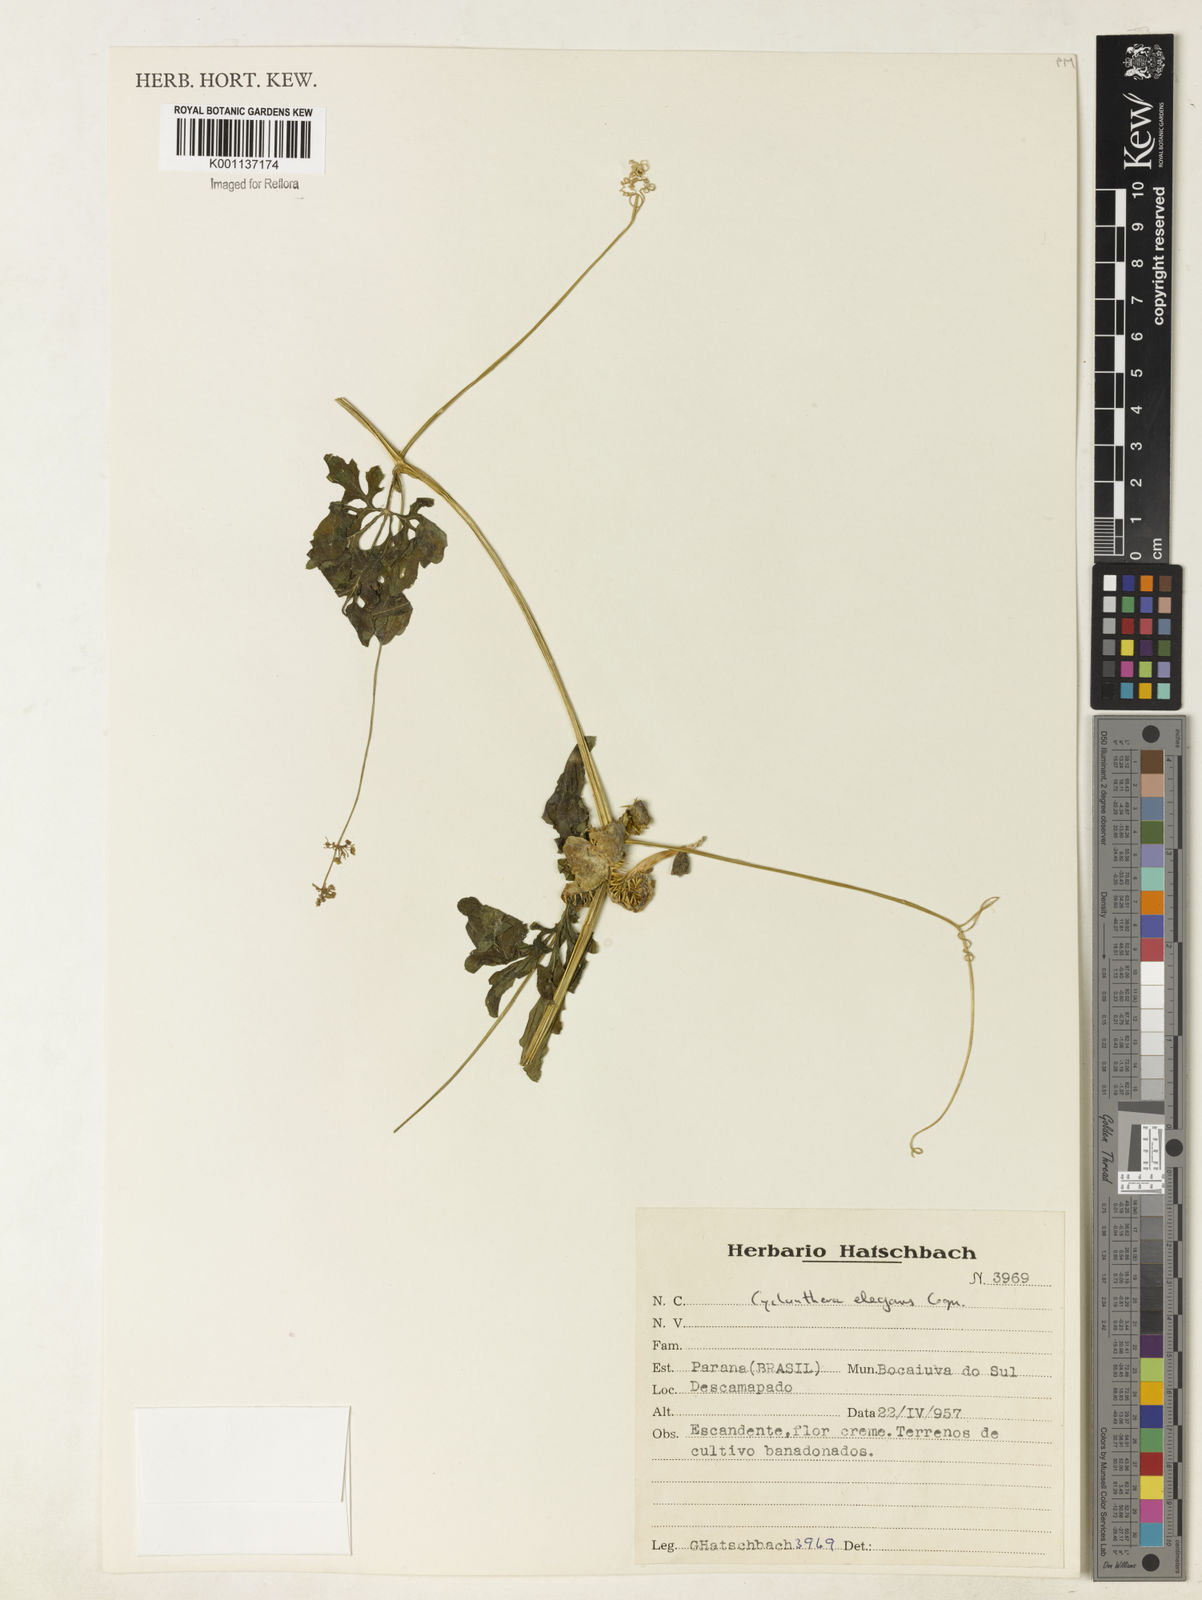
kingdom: Plantae
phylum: Tracheophyta
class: Magnoliopsida
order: Cucurbitales
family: Cucurbitaceae
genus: Cyclanthera
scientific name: Cyclanthera tenuisepala
